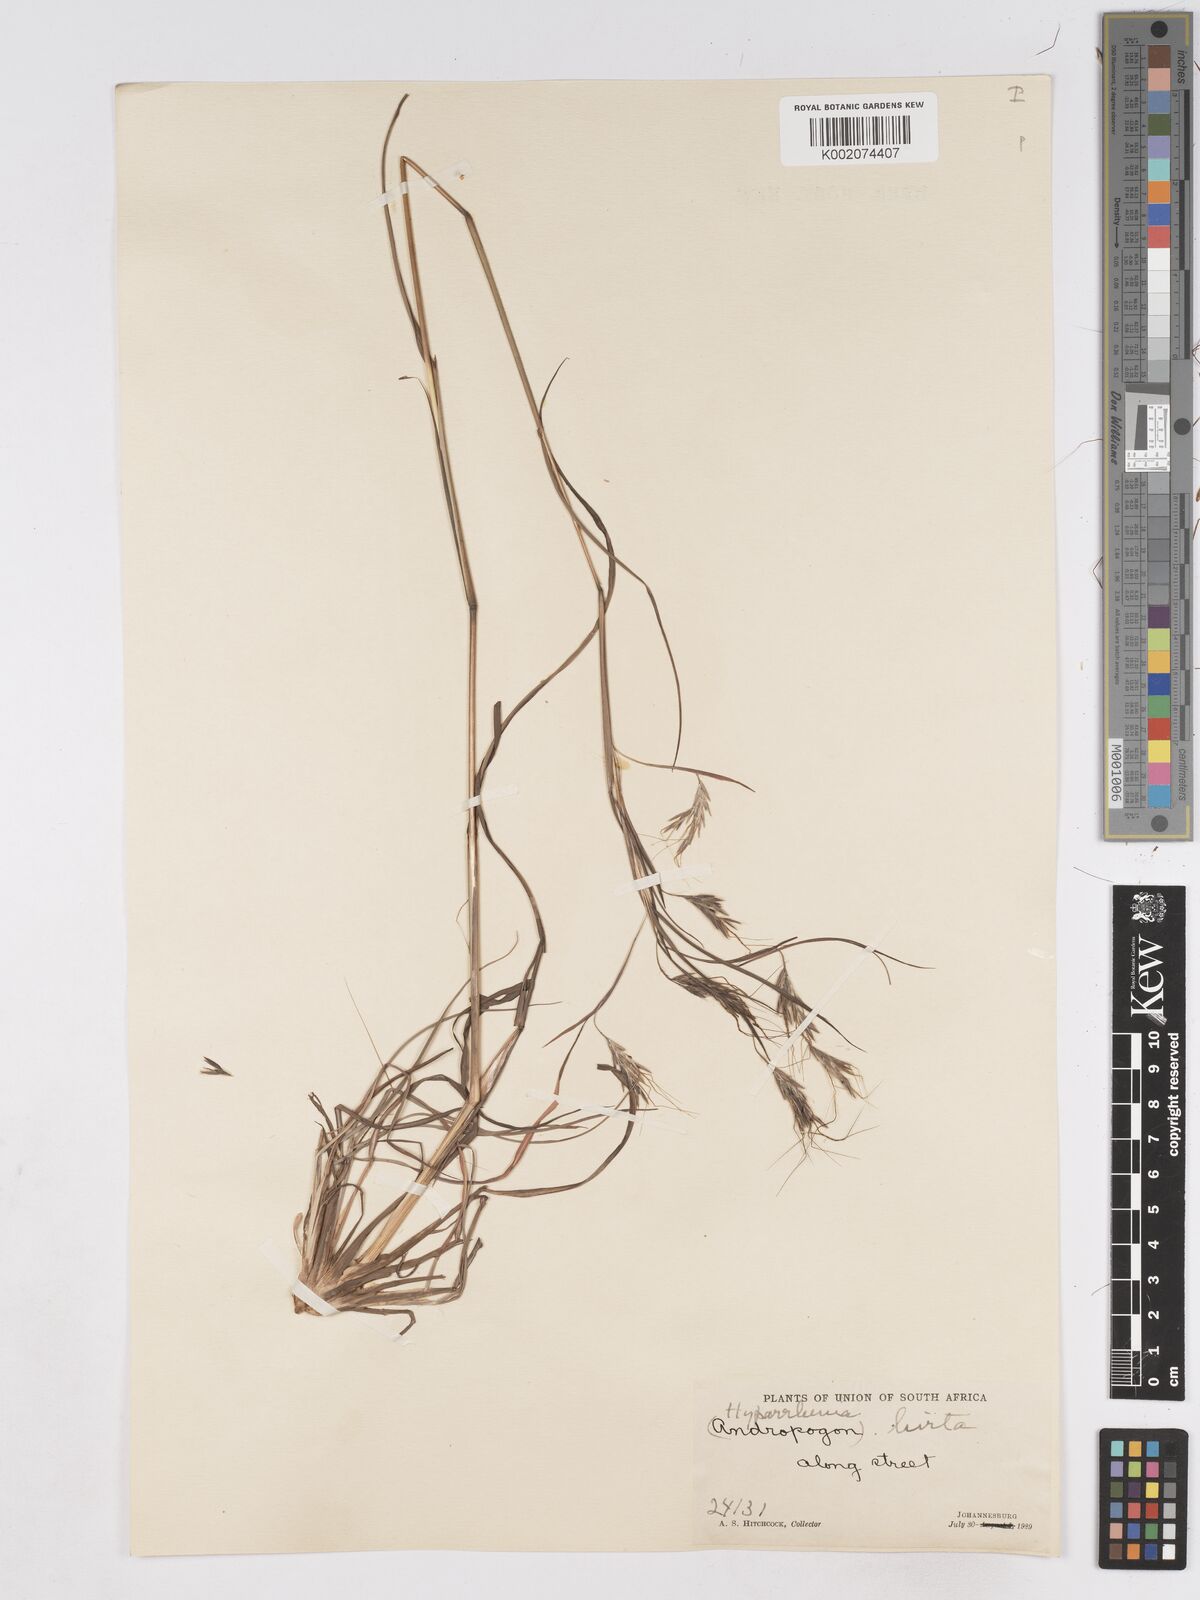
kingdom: Plantae
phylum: Tracheophyta
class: Liliopsida
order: Poales
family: Poaceae
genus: Hyparrhenia
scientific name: Hyparrhenia hirta
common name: Thatching grass
